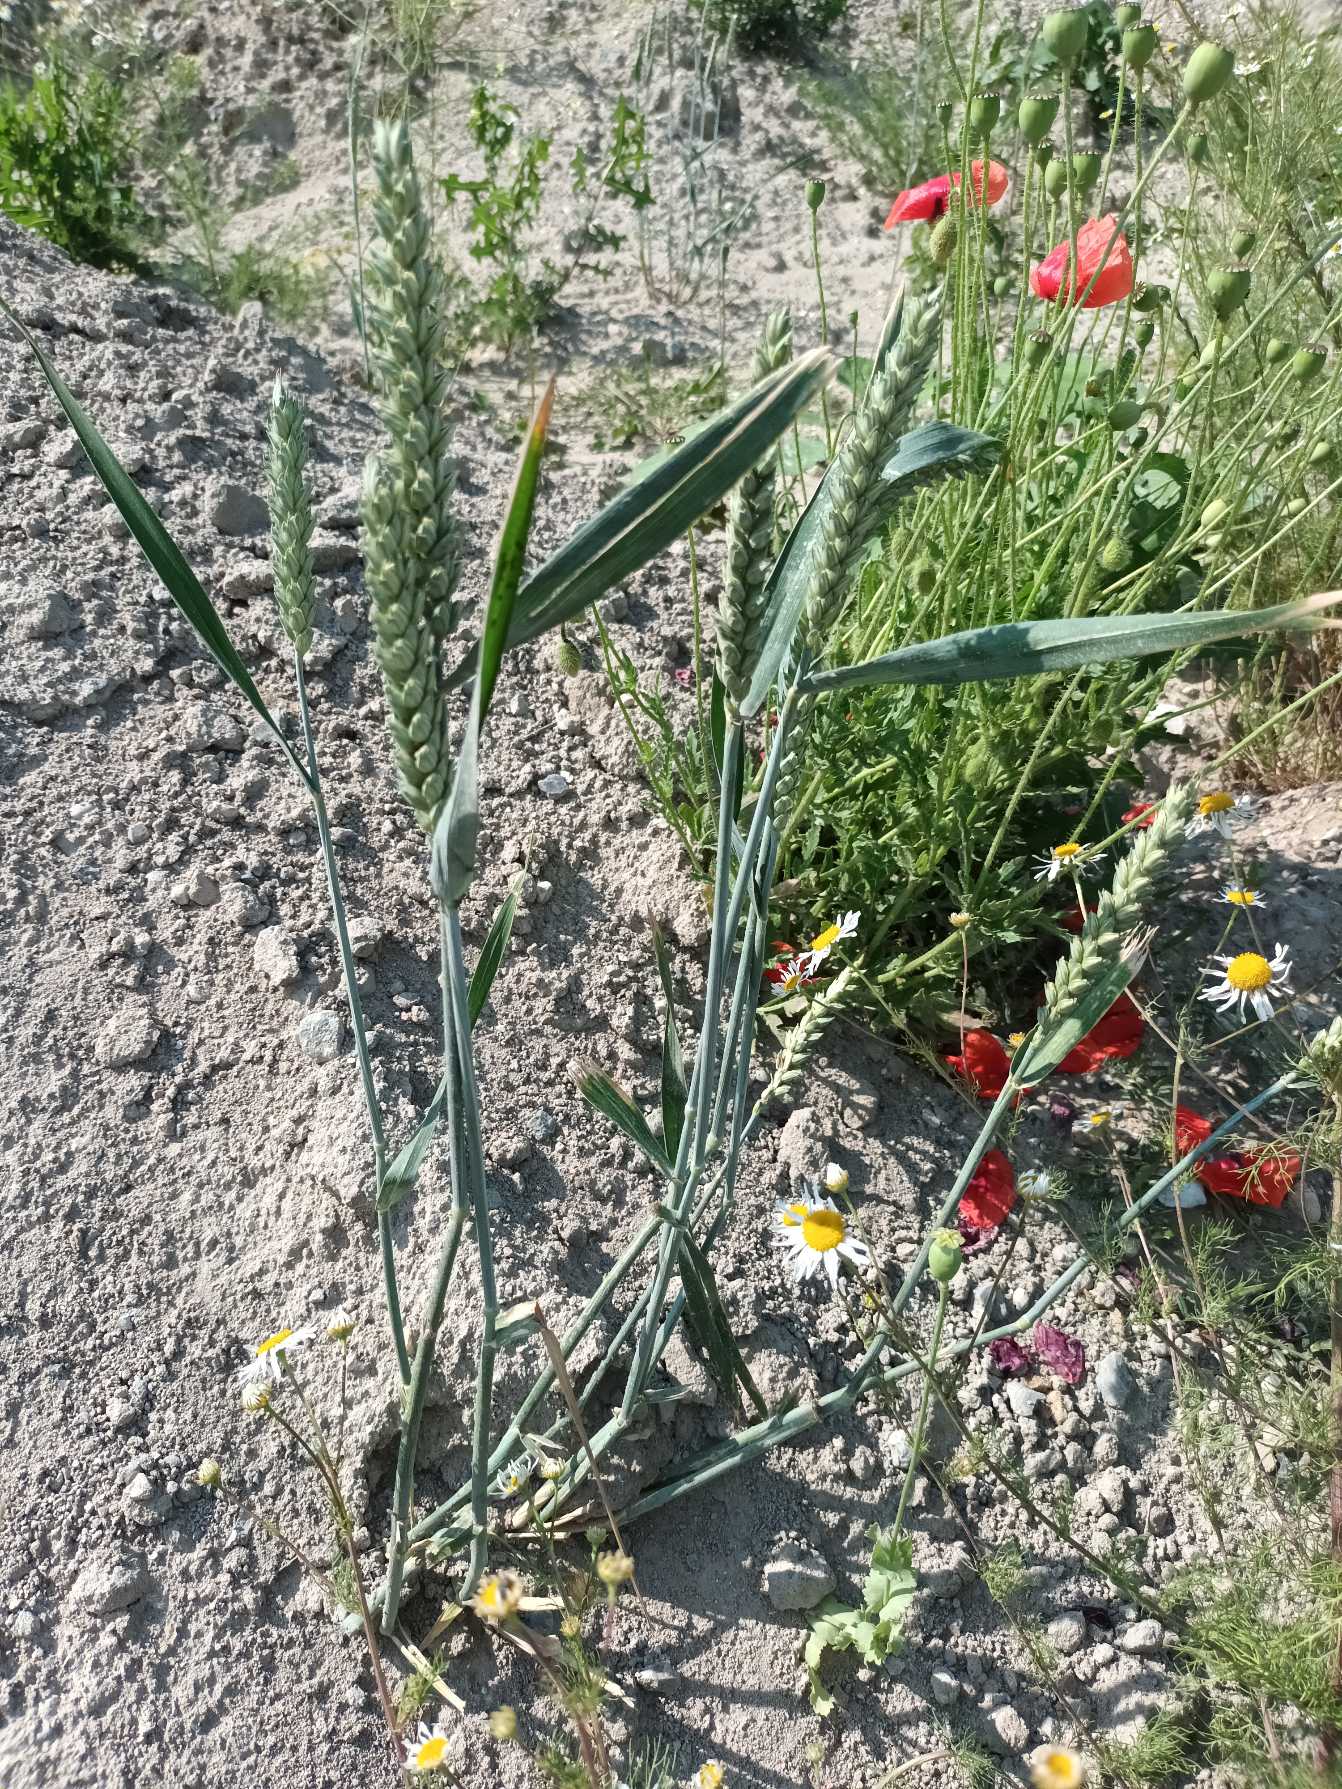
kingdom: Plantae
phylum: Tracheophyta
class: Liliopsida
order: Poales
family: Poaceae
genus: Triticum
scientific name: Triticum aestivum
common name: Almindelig hvede
